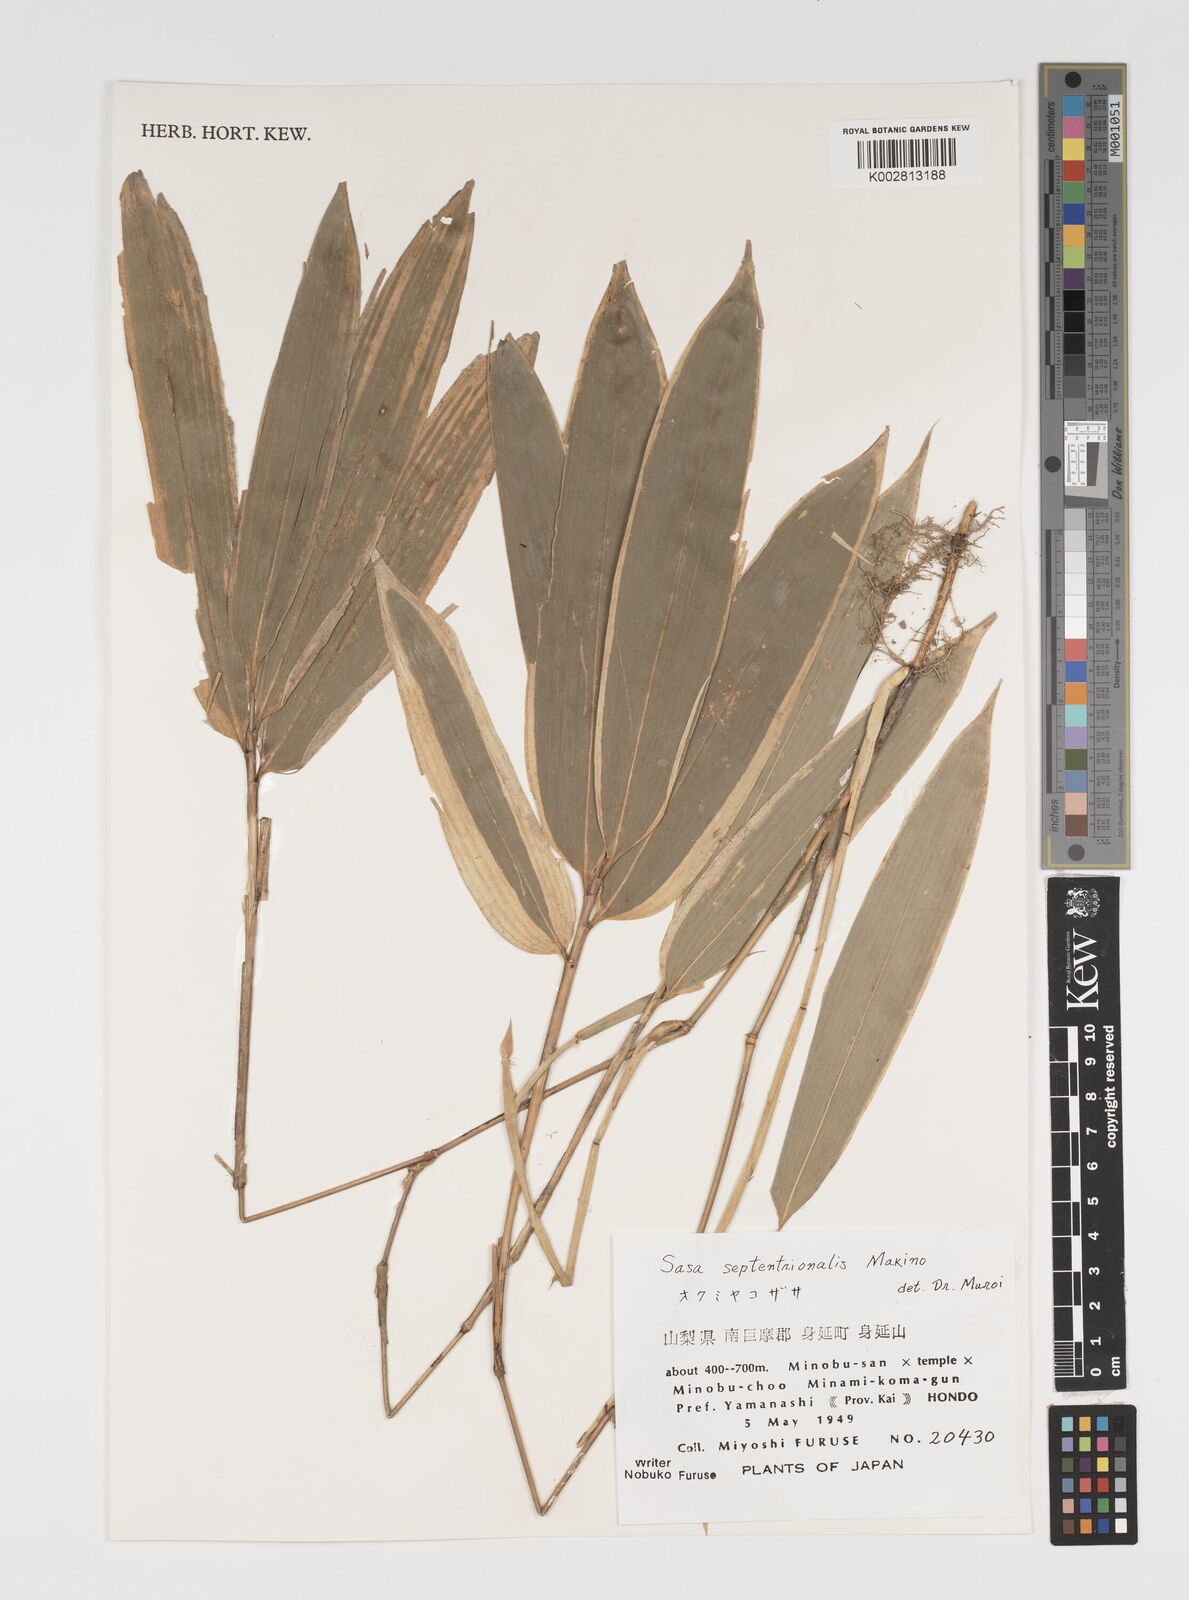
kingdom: Plantae
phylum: Tracheophyta
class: Liliopsida
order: Poales
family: Poaceae
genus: Sasa
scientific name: Sasa septentrionalis
